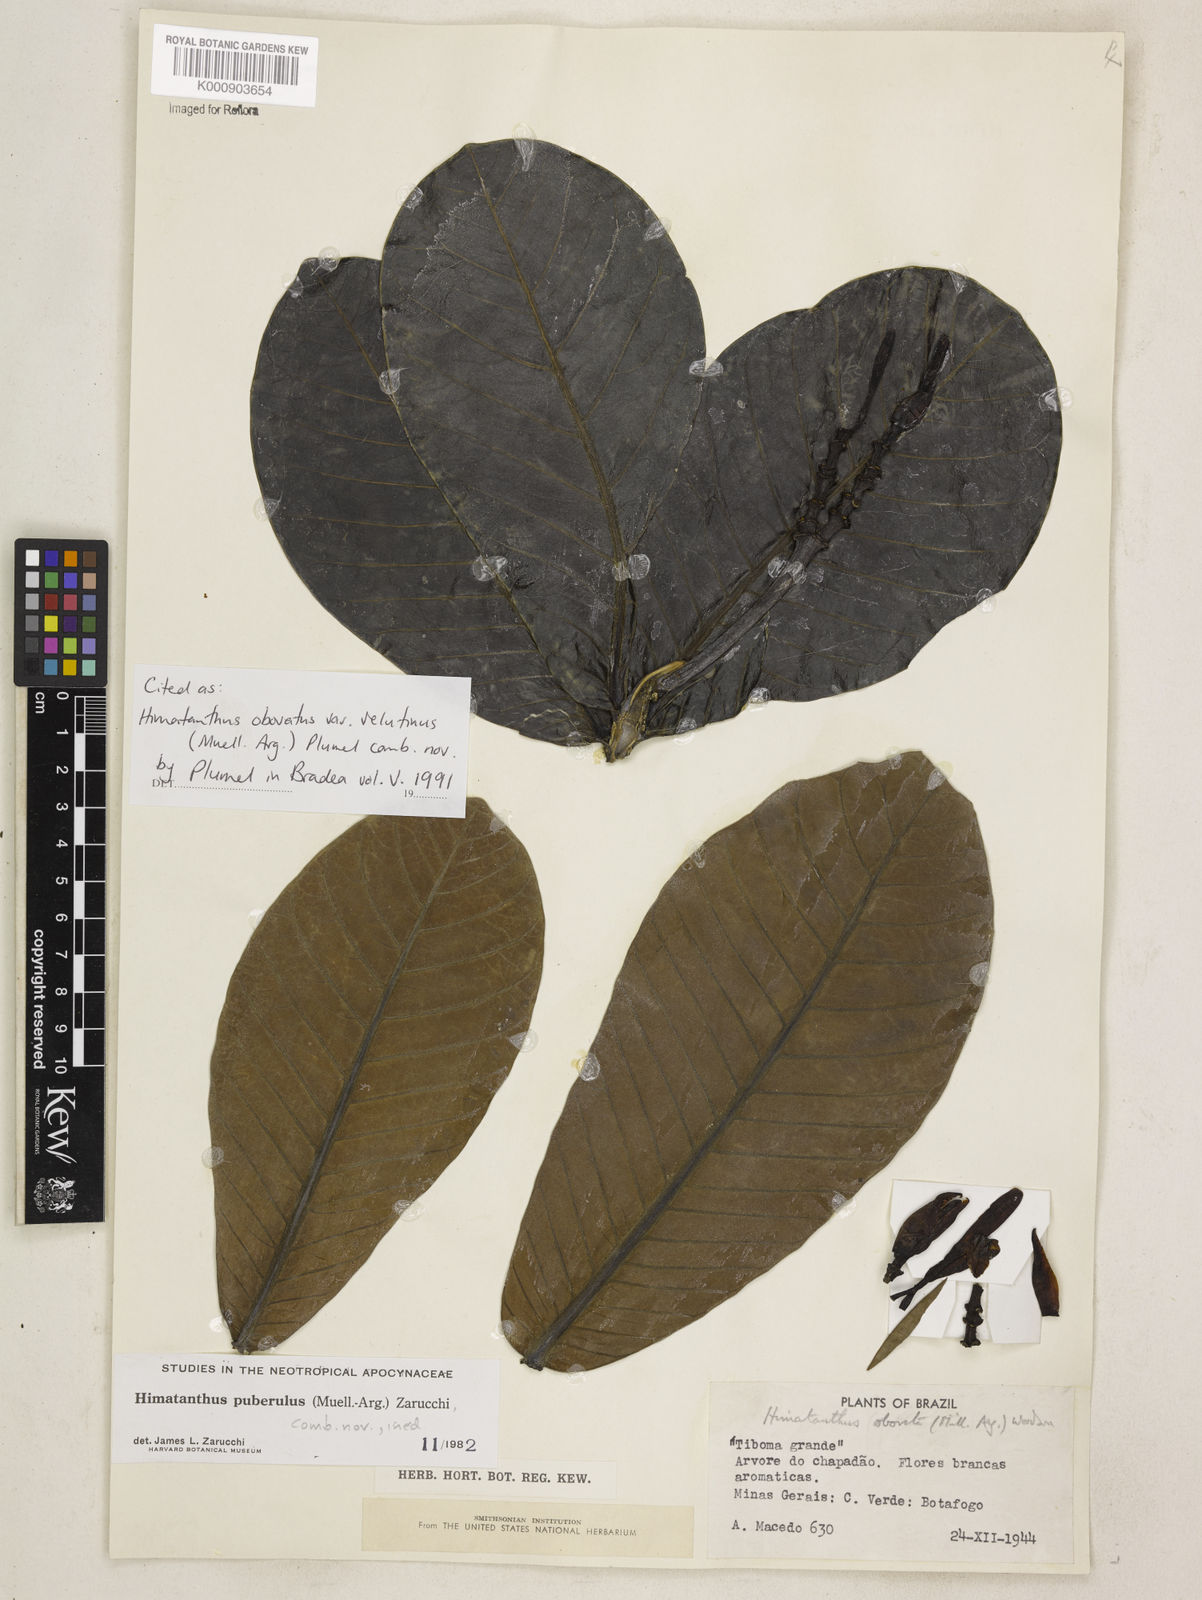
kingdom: Plantae
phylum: Tracheophyta
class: Magnoliopsida
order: Gentianales
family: Apocynaceae
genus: Himatanthus
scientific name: Himatanthus
